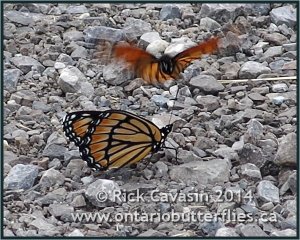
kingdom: Animalia
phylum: Arthropoda
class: Insecta
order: Lepidoptera
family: Nymphalidae
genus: Limenitis
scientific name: Limenitis archippus
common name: Viceroy
